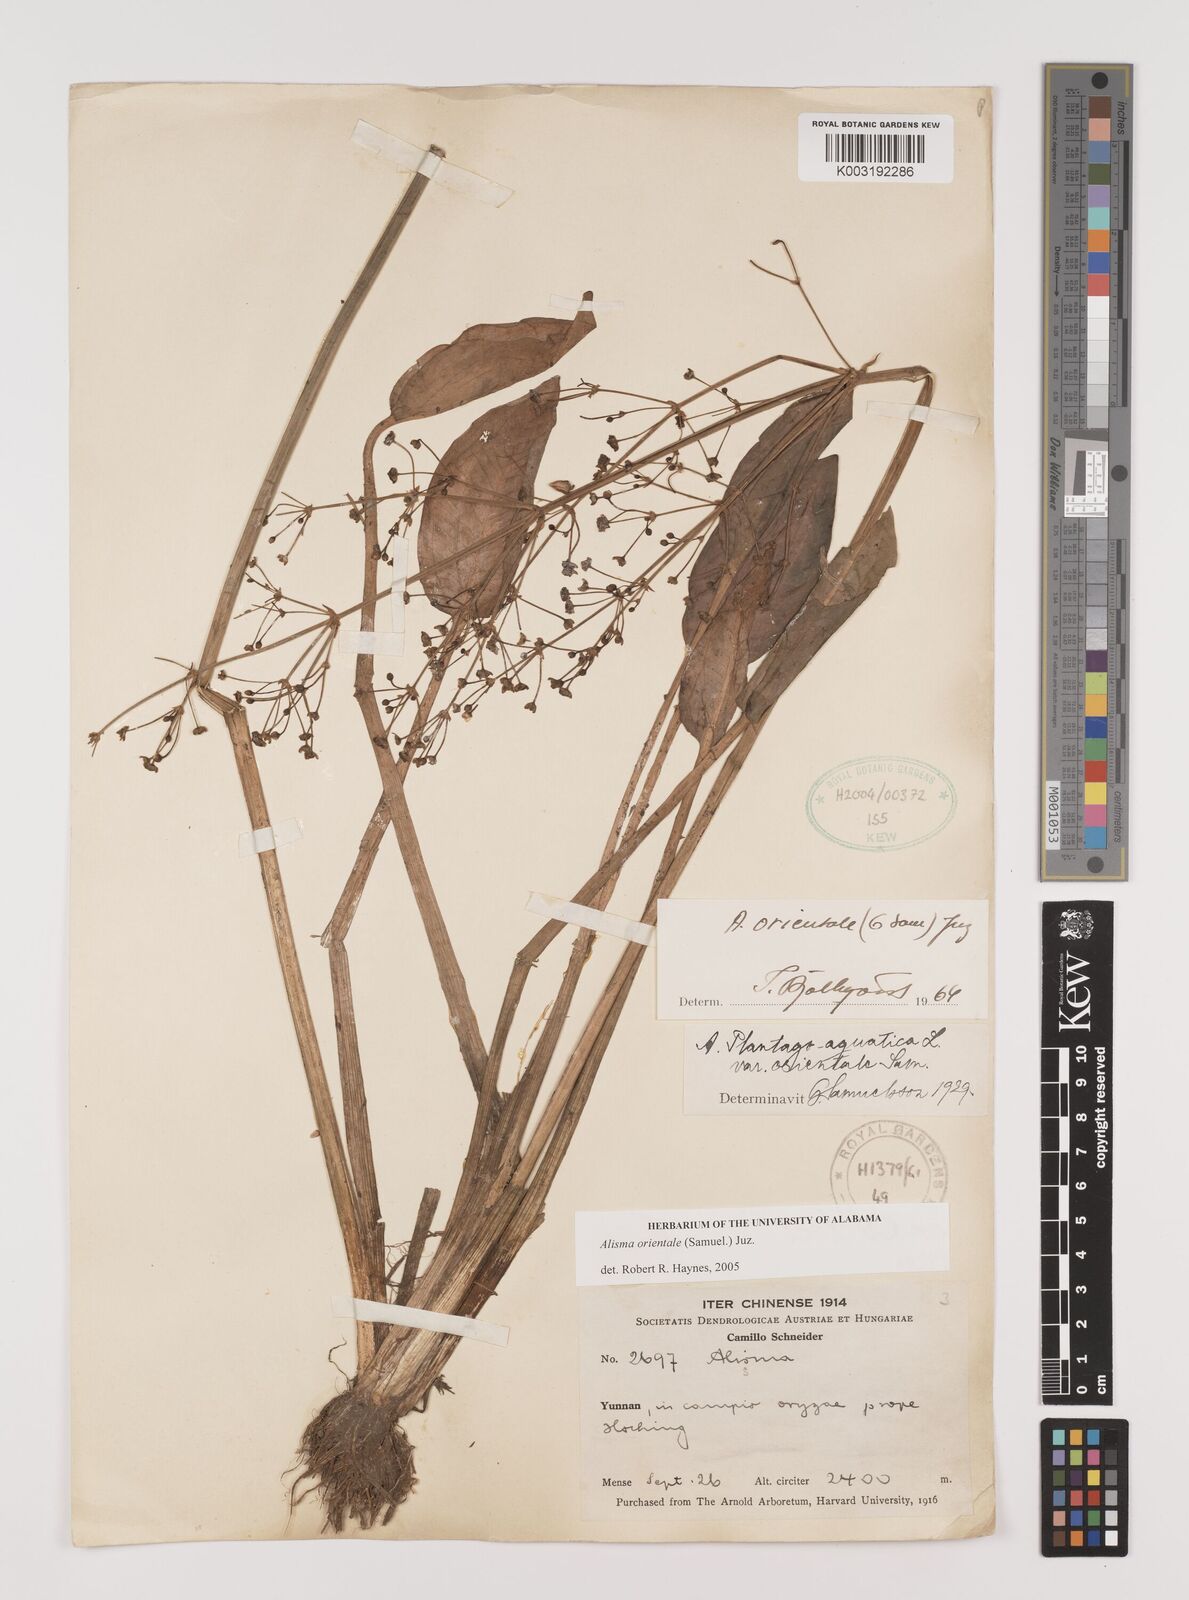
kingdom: Plantae
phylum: Tracheophyta
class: Liliopsida
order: Alismatales
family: Alismataceae
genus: Alisma
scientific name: Alisma plantago-aquatica
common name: Water-plantain
